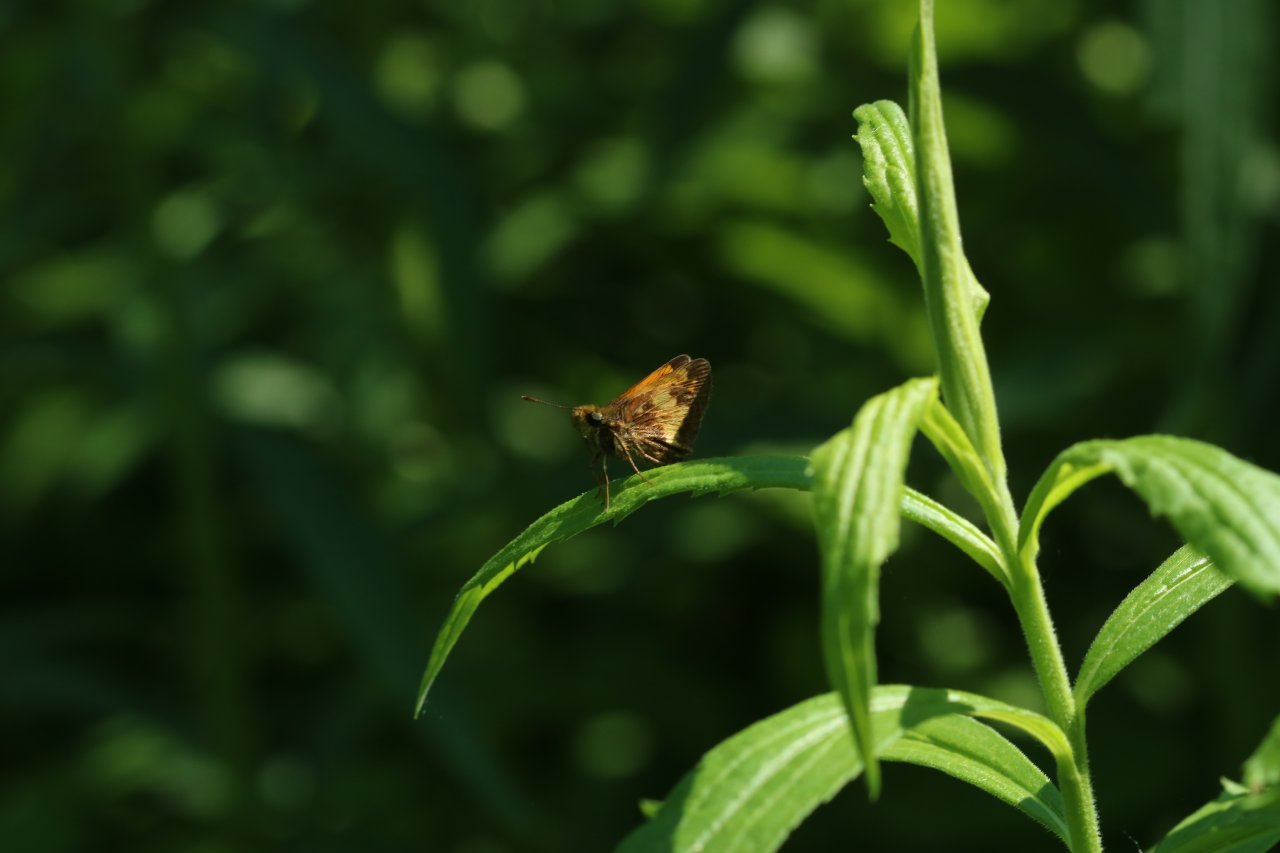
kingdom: Animalia
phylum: Arthropoda
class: Insecta
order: Lepidoptera
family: Hesperiidae
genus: Lon
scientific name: Lon hobomok
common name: Hobomok Skipper
